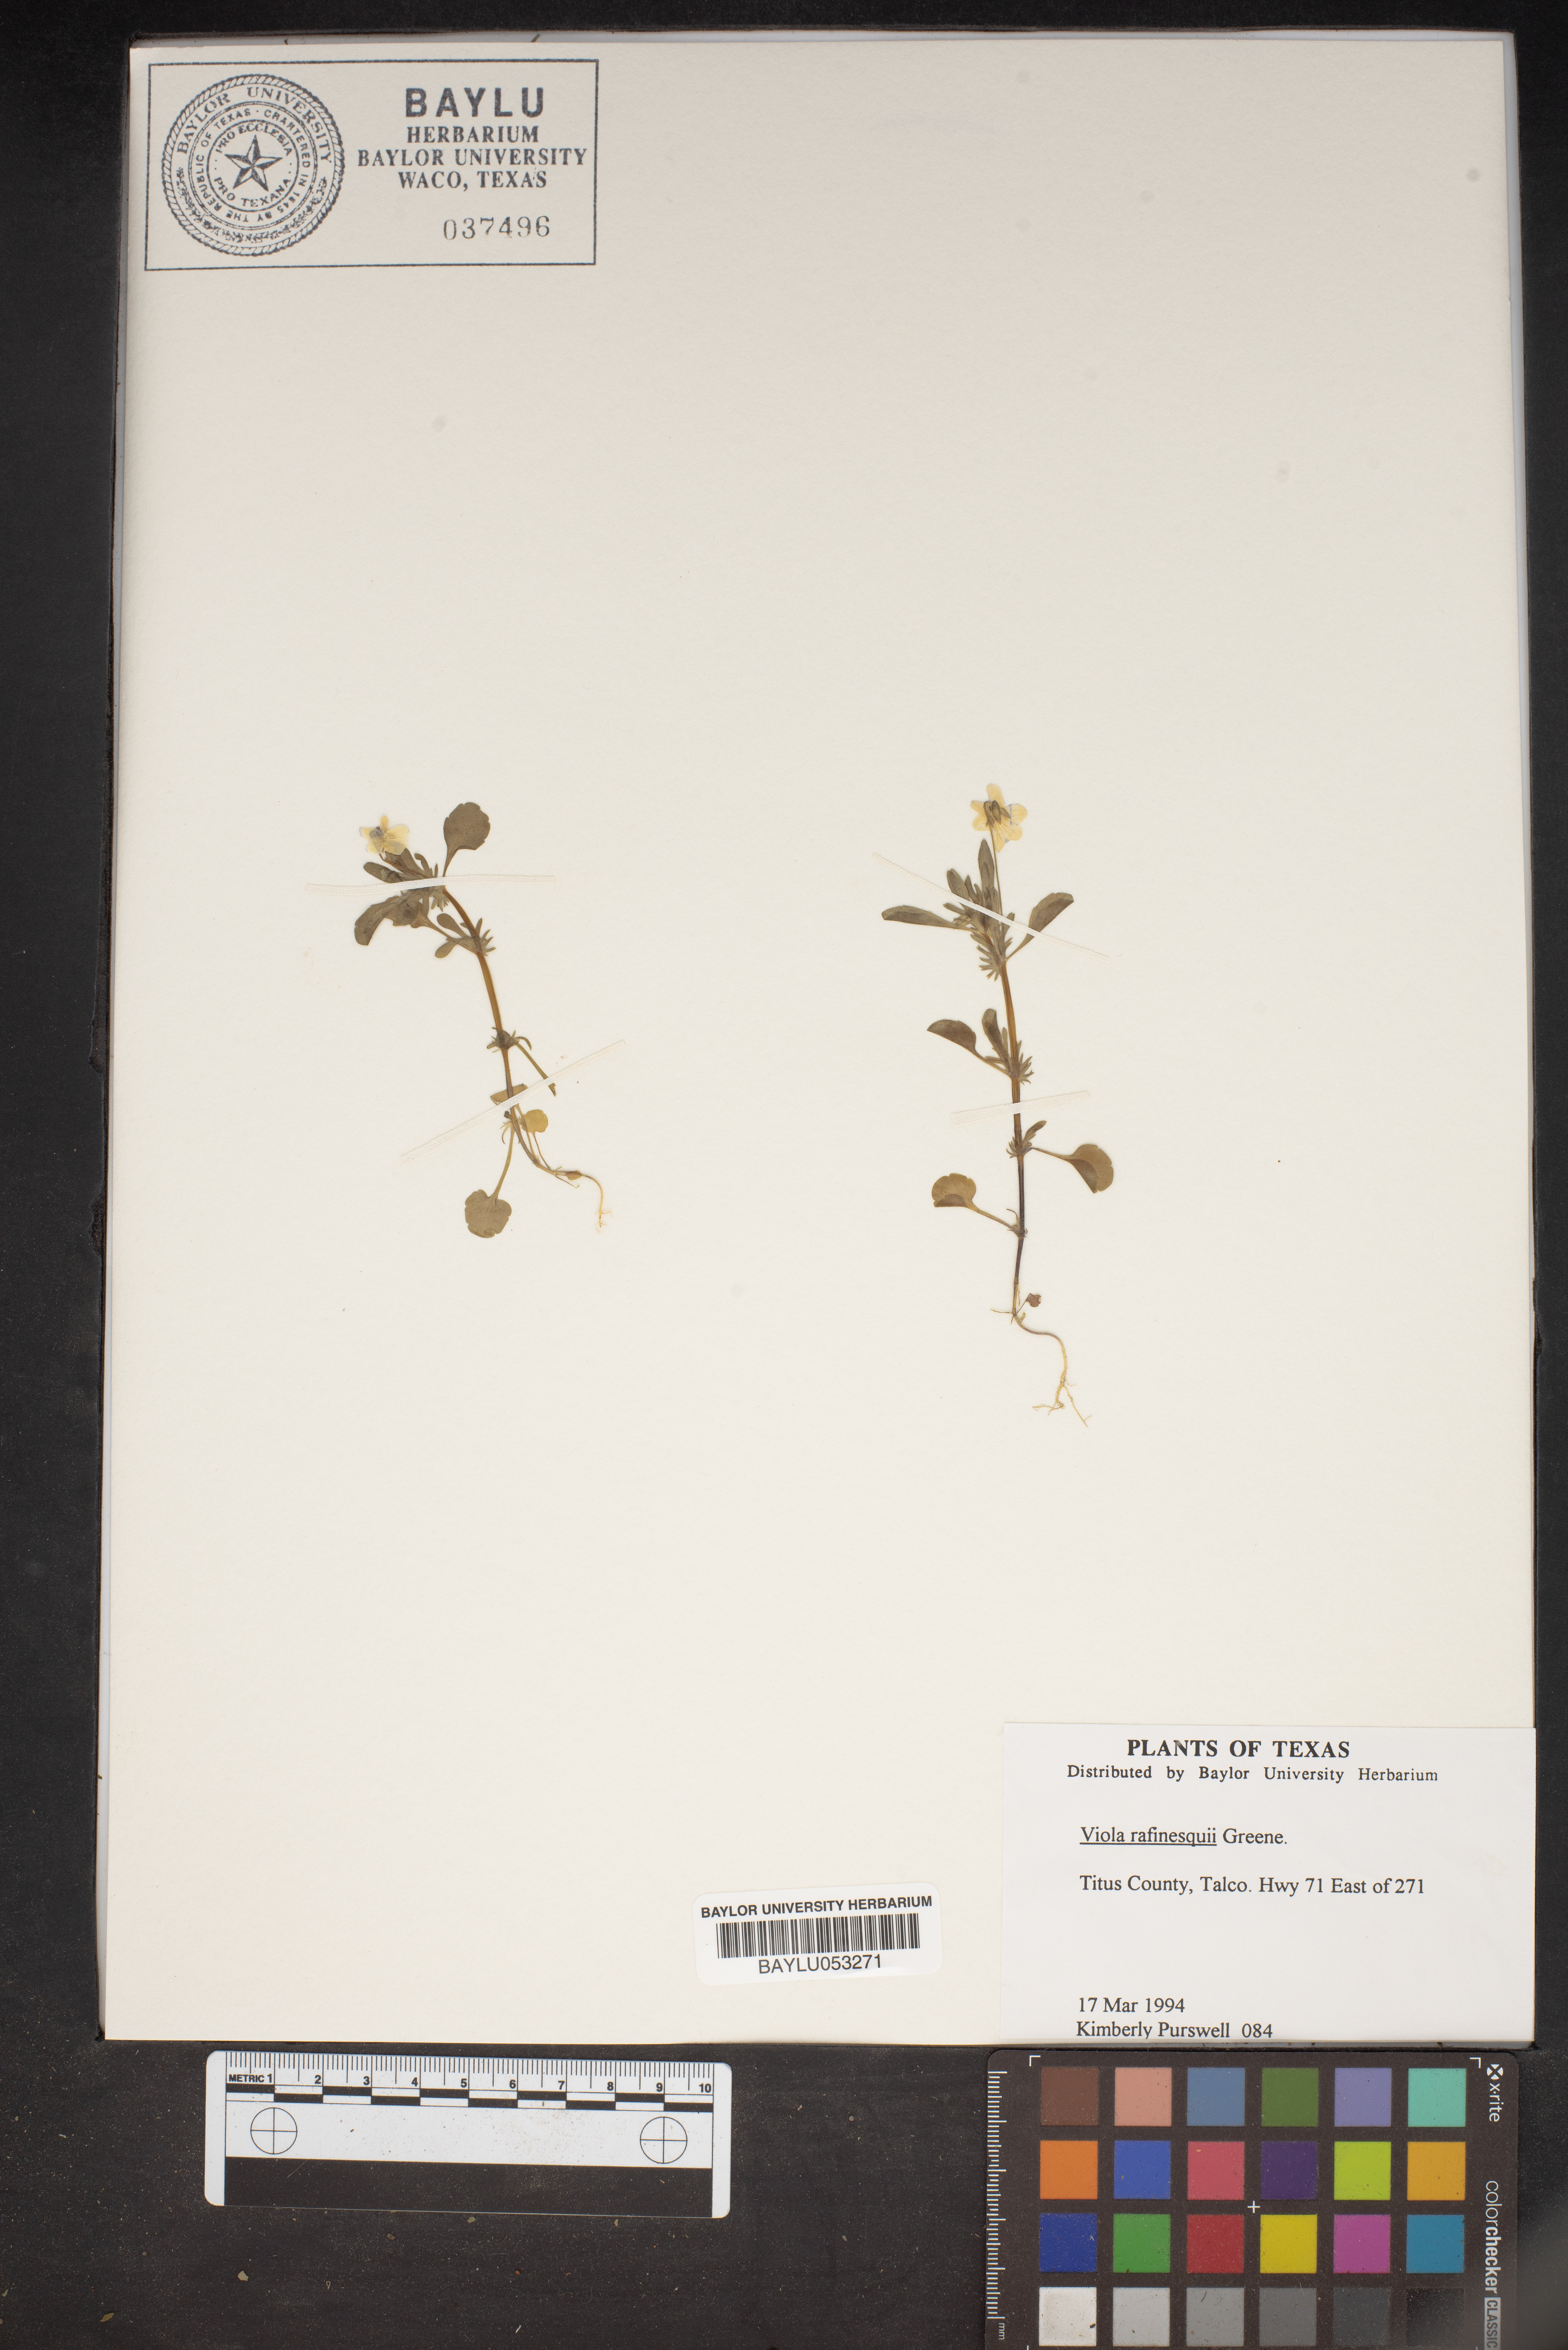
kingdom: Plantae
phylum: Tracheophyta
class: Magnoliopsida
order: Malpighiales
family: Violaceae
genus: Viola
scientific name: Viola rafinesquei
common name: American field pansy
